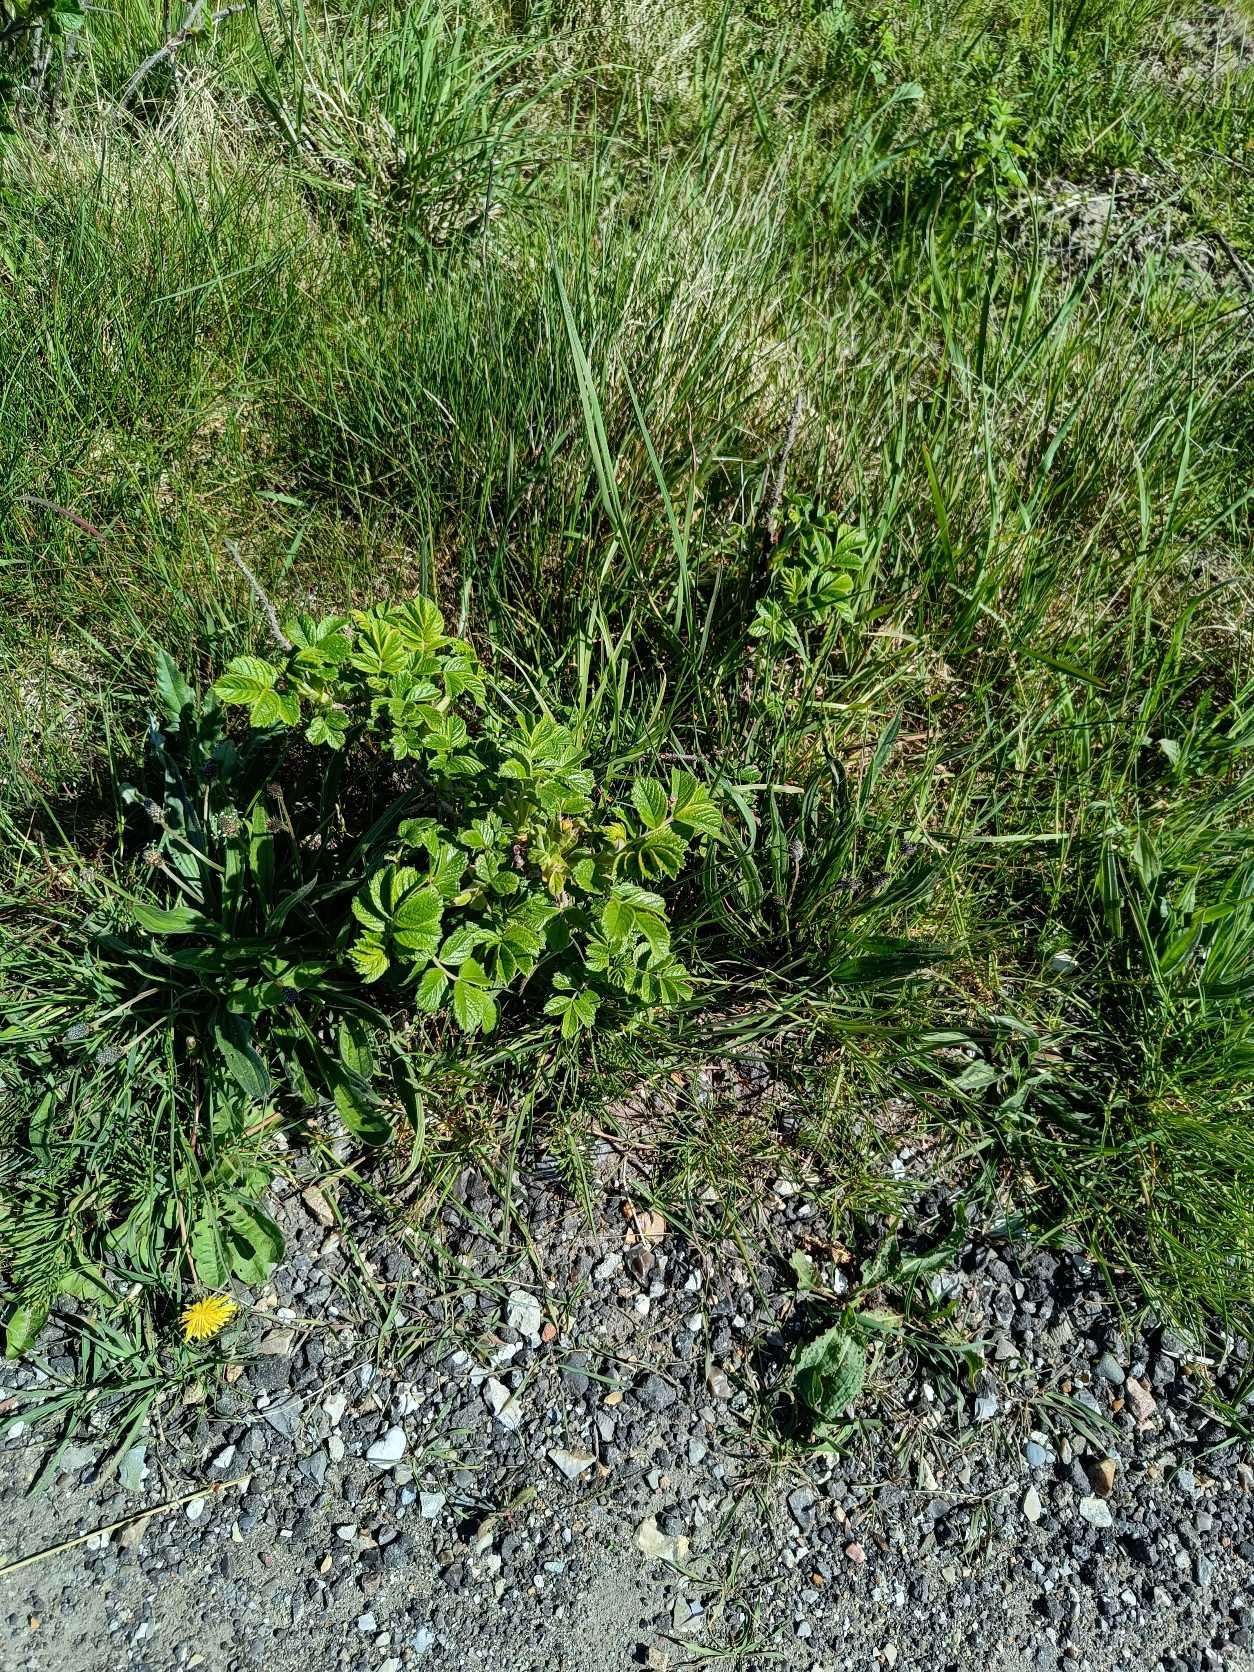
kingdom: Plantae
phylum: Tracheophyta
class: Magnoliopsida
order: Rosales
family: Rosaceae
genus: Rosa
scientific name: Rosa rugosa
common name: Rynket rose
